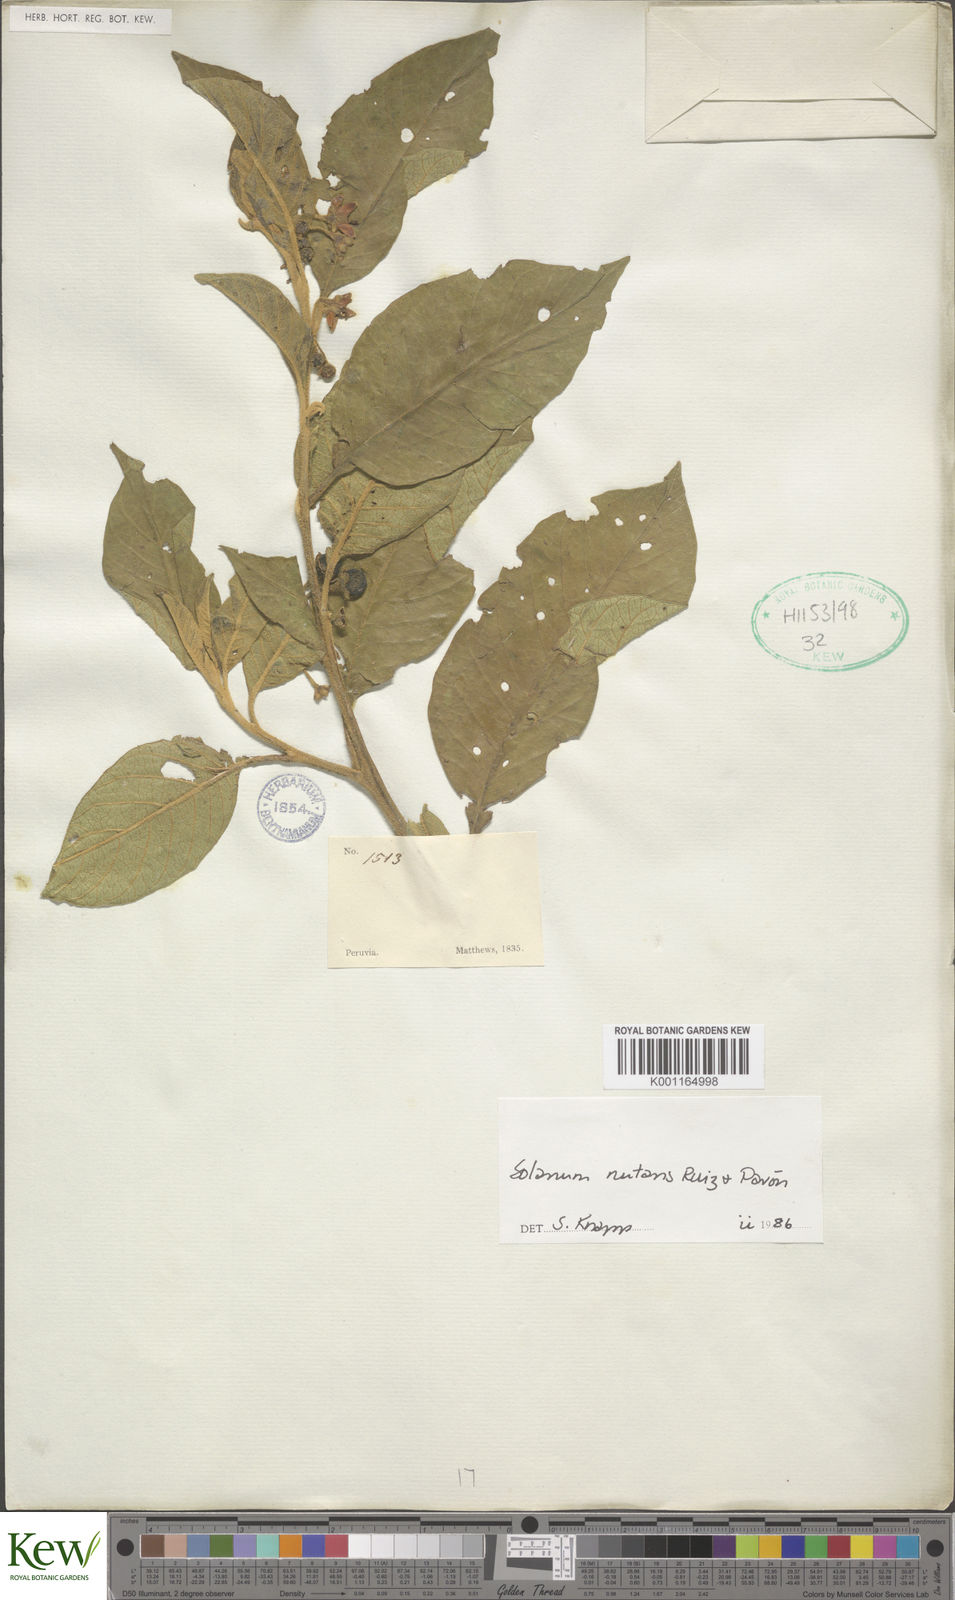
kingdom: Plantae
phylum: Tracheophyta
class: Magnoliopsida
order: Solanales
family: Solanaceae
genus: Solanum
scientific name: Solanum nutans
